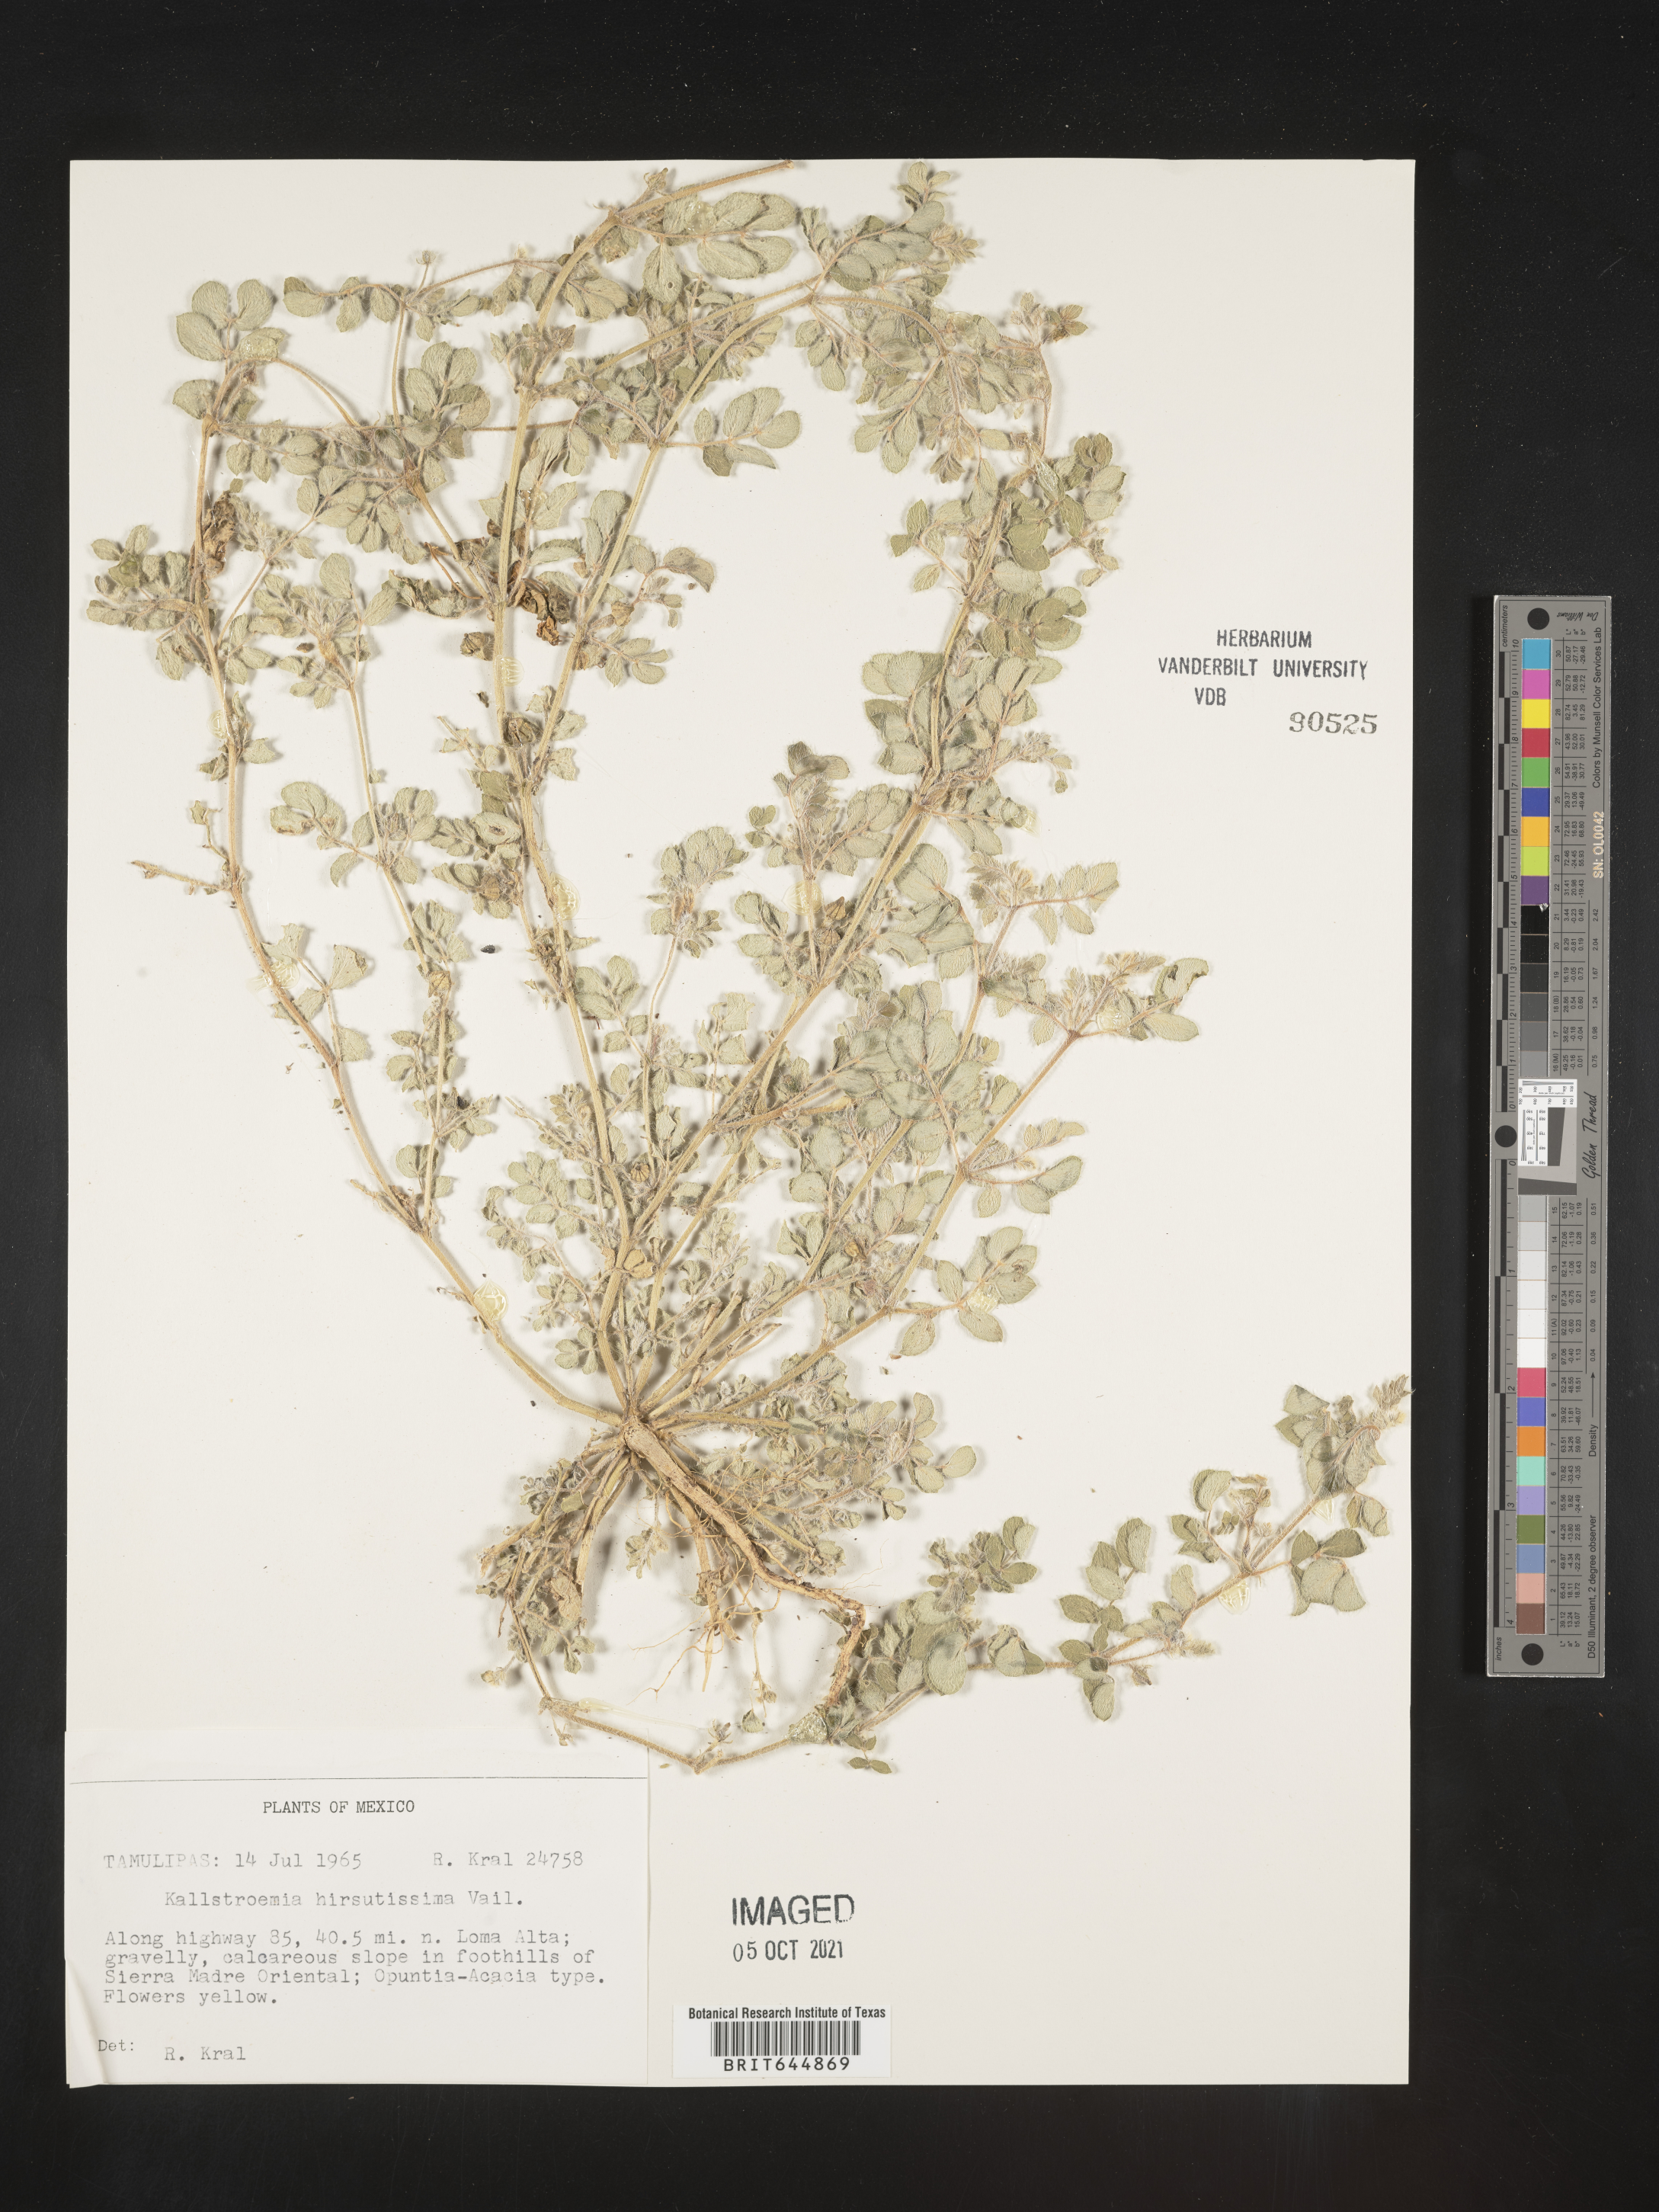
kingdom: Plantae
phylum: Tracheophyta
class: Magnoliopsida
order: Zygophyllales
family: Zygophyllaceae
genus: Kallstroemia
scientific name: Kallstroemia
